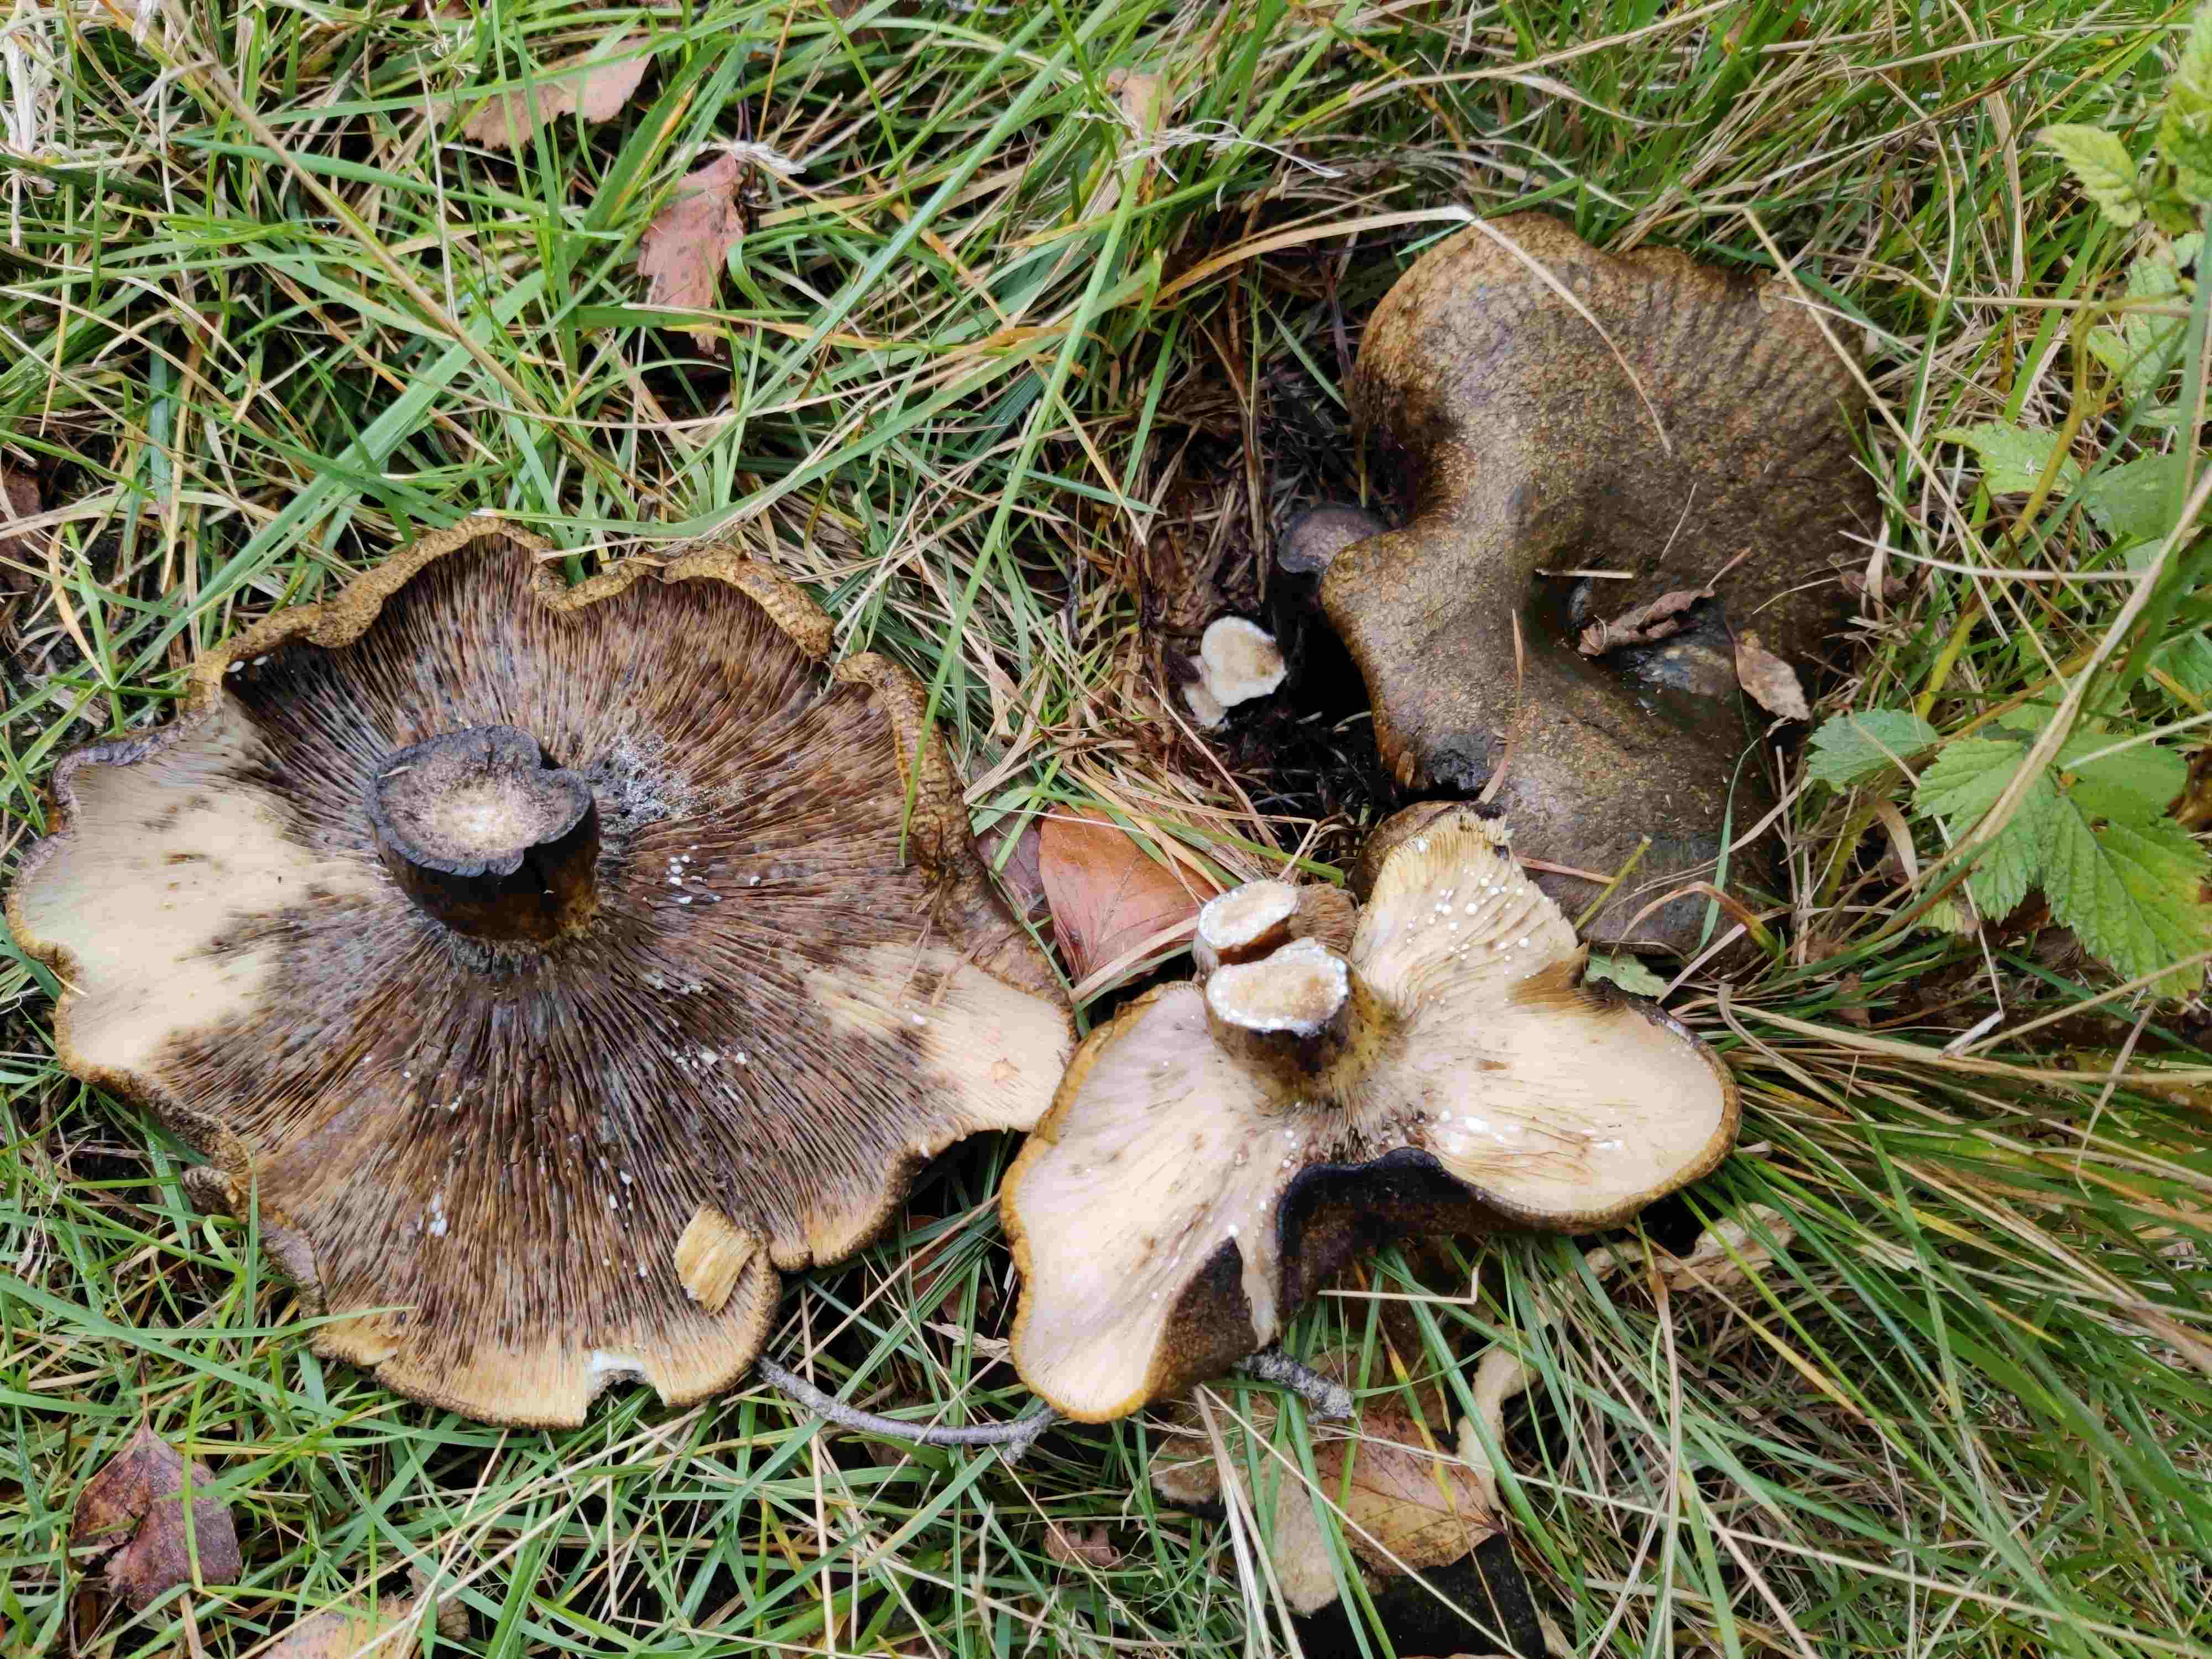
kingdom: Fungi
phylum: Basidiomycota
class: Agaricomycetes
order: Russulales
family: Russulaceae
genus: Lactarius
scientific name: Lactarius necator
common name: manddraber-mælkehat
